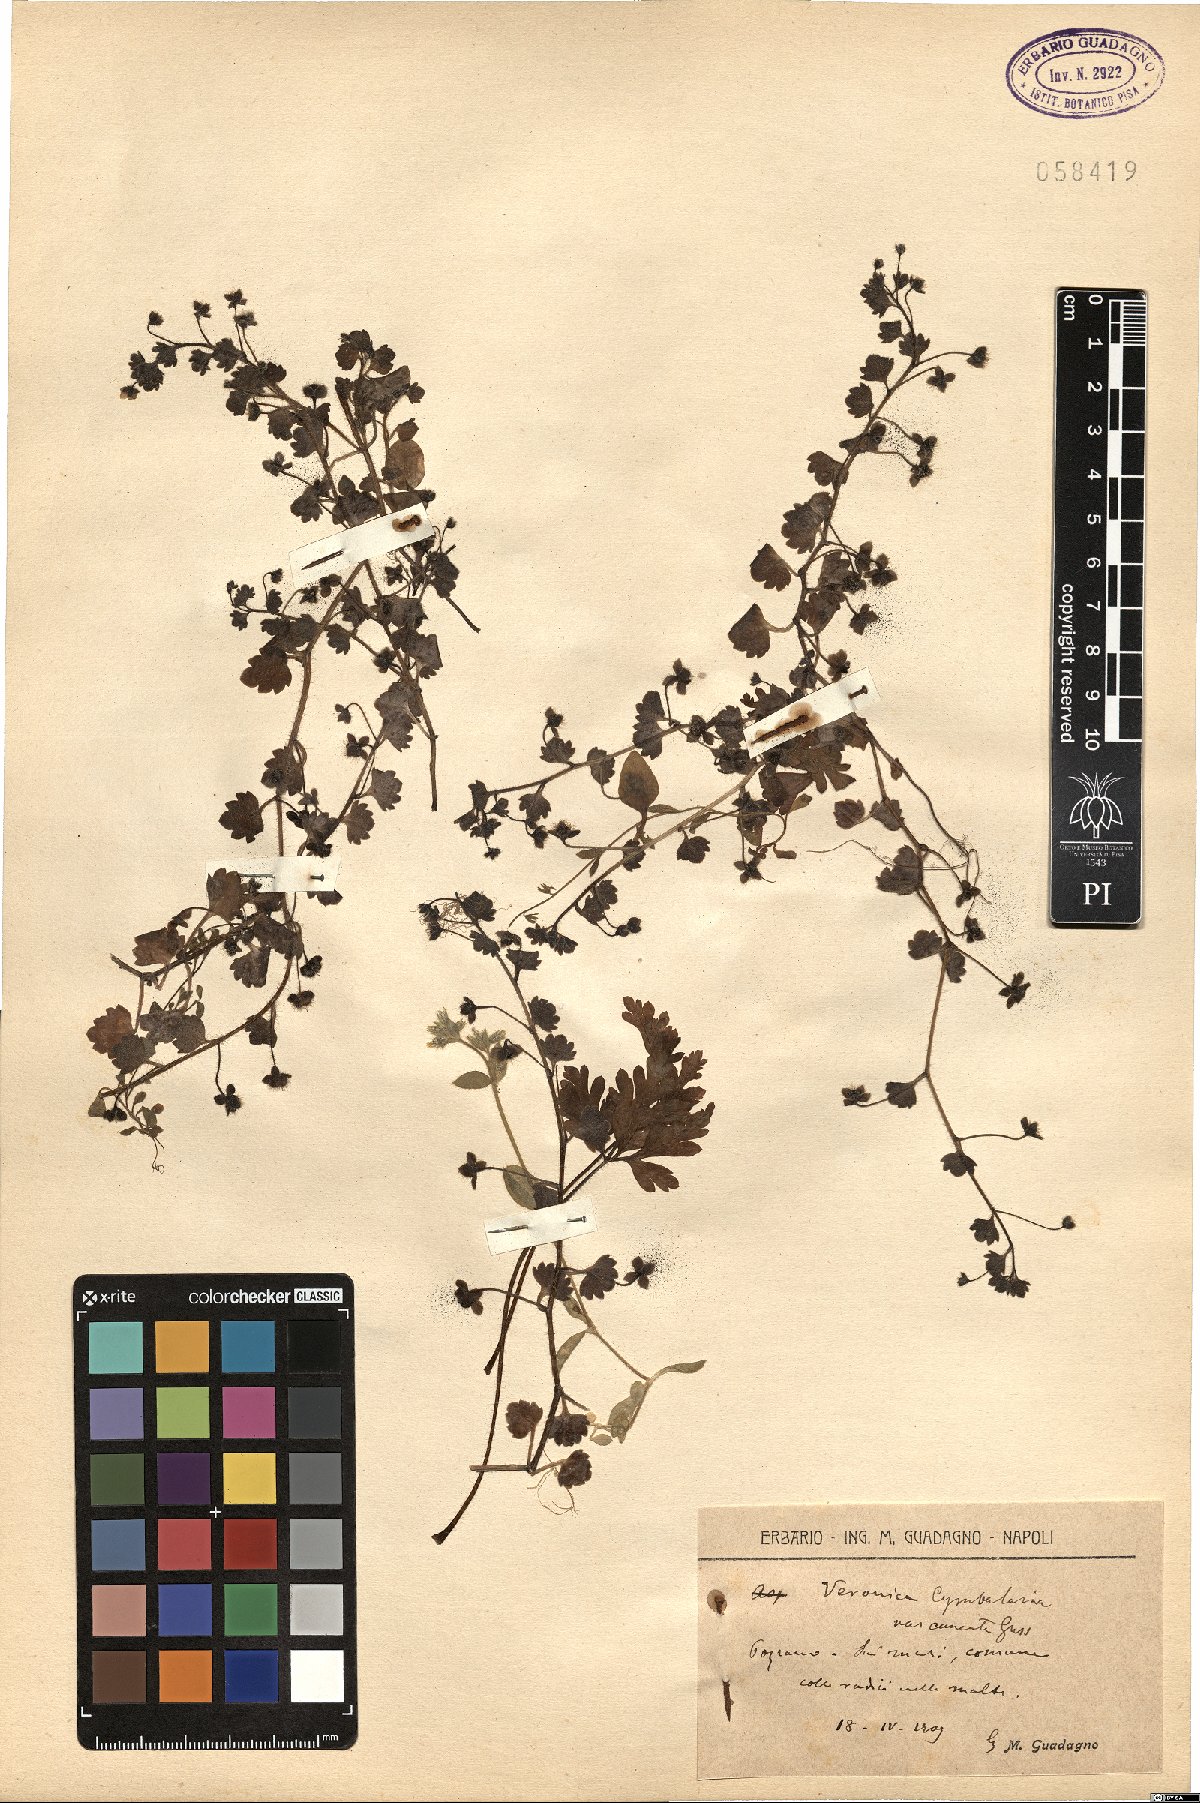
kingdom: Plantae
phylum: Tracheophyta
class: Magnoliopsida
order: Lamiales
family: Plantaginaceae
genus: Veronica
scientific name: Veronica cymbalaria
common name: Pale speedwell
